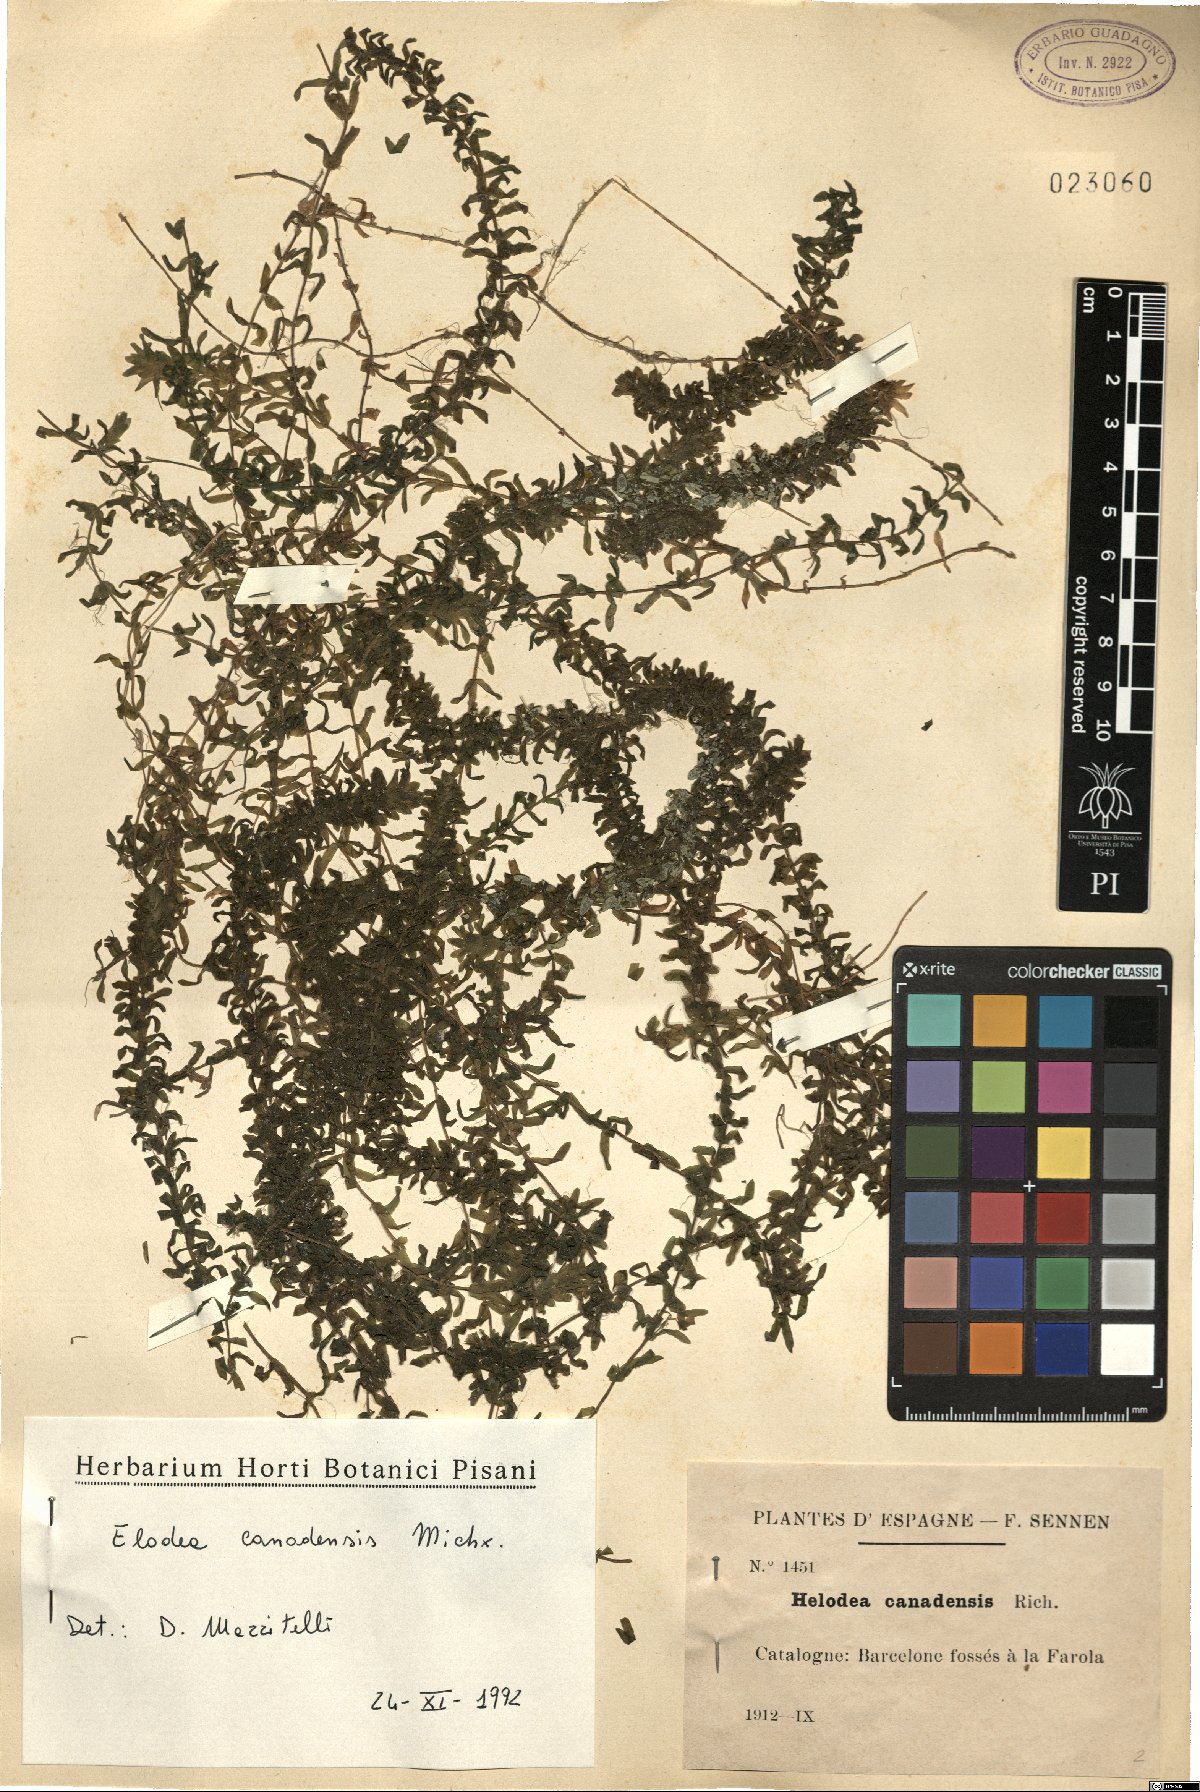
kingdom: Plantae
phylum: Tracheophyta
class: Liliopsida
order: Alismatales
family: Hydrocharitaceae
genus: Elodea
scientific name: Elodea canadensis
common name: Canadian waterweed
